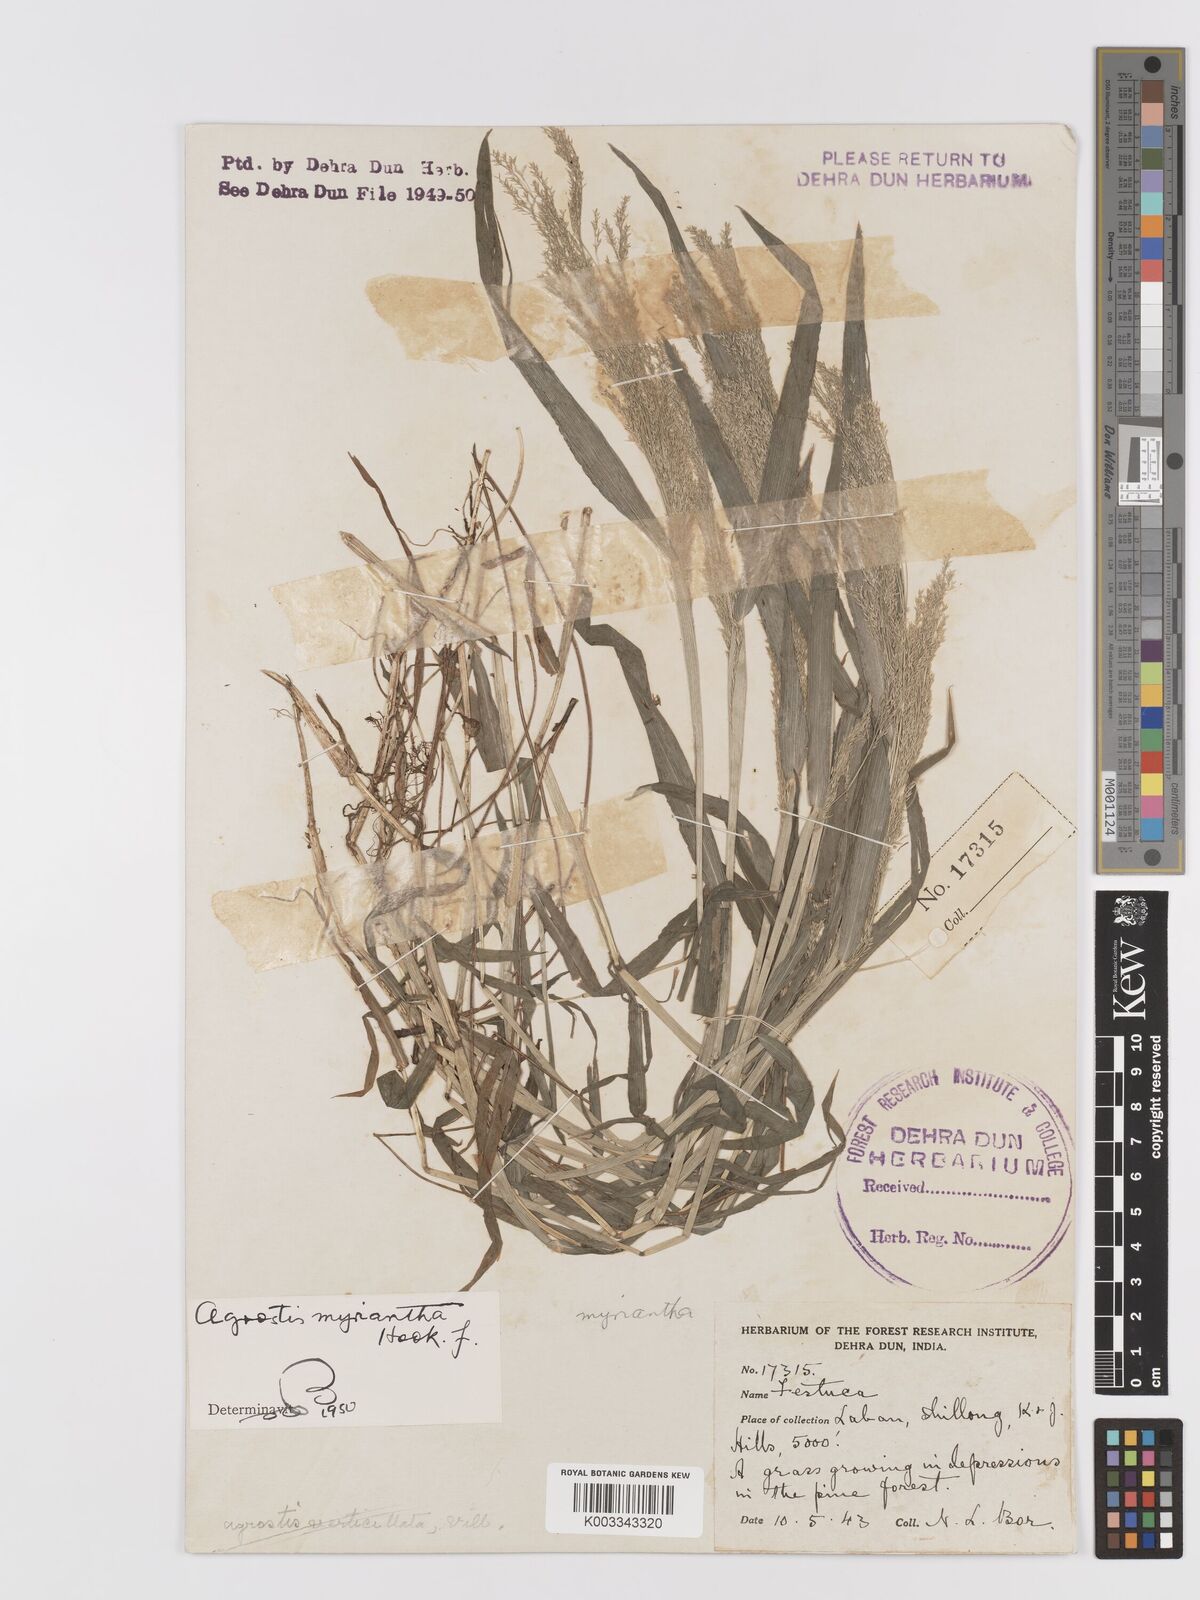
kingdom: Plantae
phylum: Tracheophyta
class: Liliopsida
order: Poales
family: Poaceae
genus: Agrostis
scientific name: Agrostis micrantha
